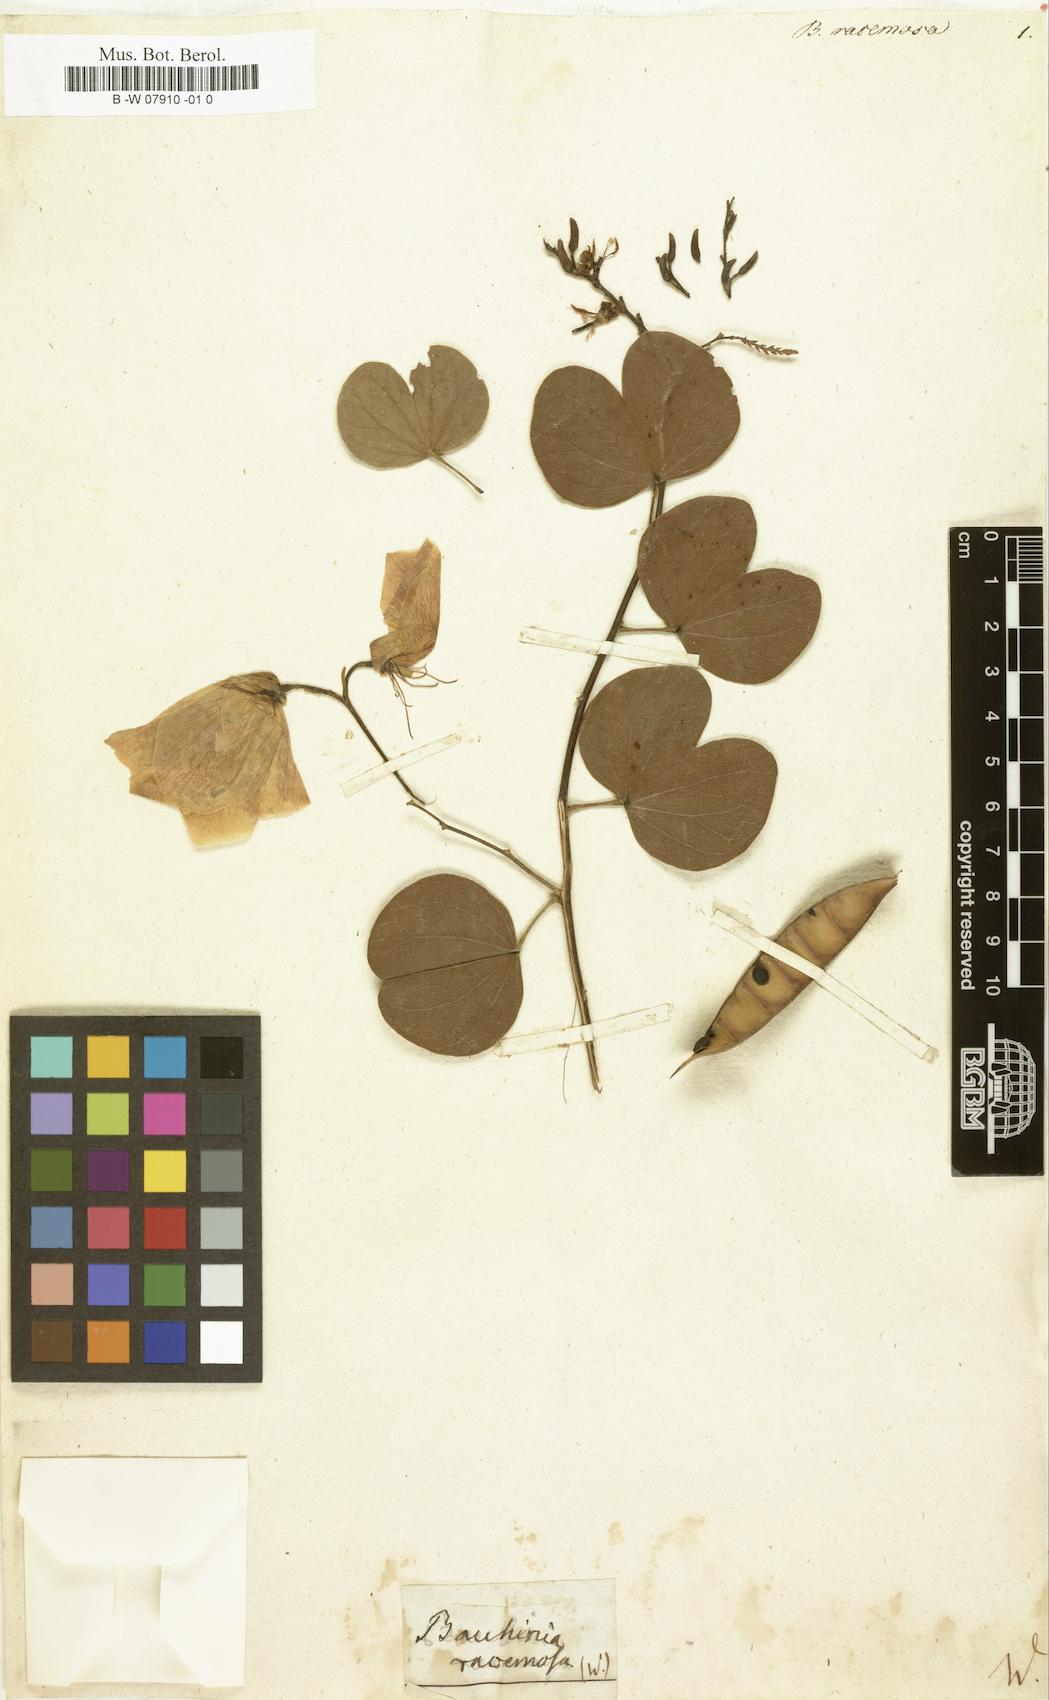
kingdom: Plantae
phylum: Tracheophyta
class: Magnoliopsida
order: Fabales
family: Fabaceae
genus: Bauhinia
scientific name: Bauhinia racemosa
